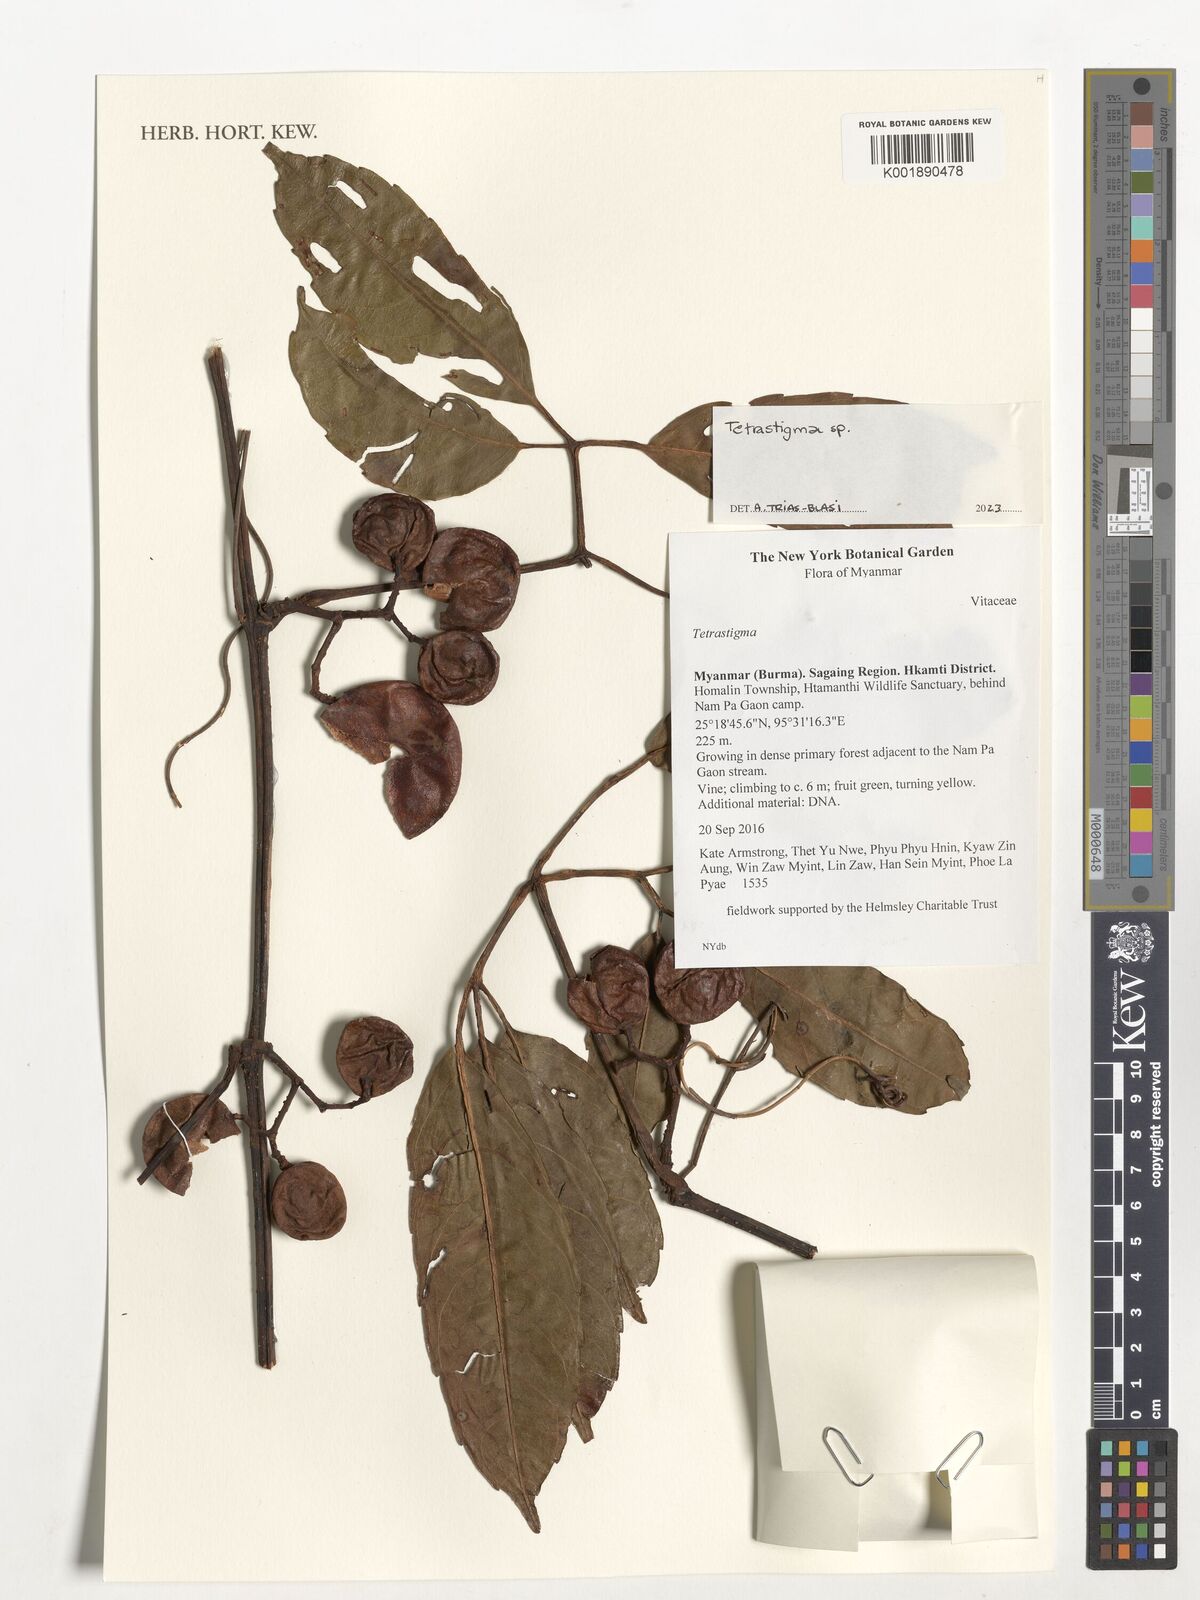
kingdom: Plantae
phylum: Tracheophyta
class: Magnoliopsida
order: Vitales
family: Vitaceae
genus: Tetrastigma
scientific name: Tetrastigma
